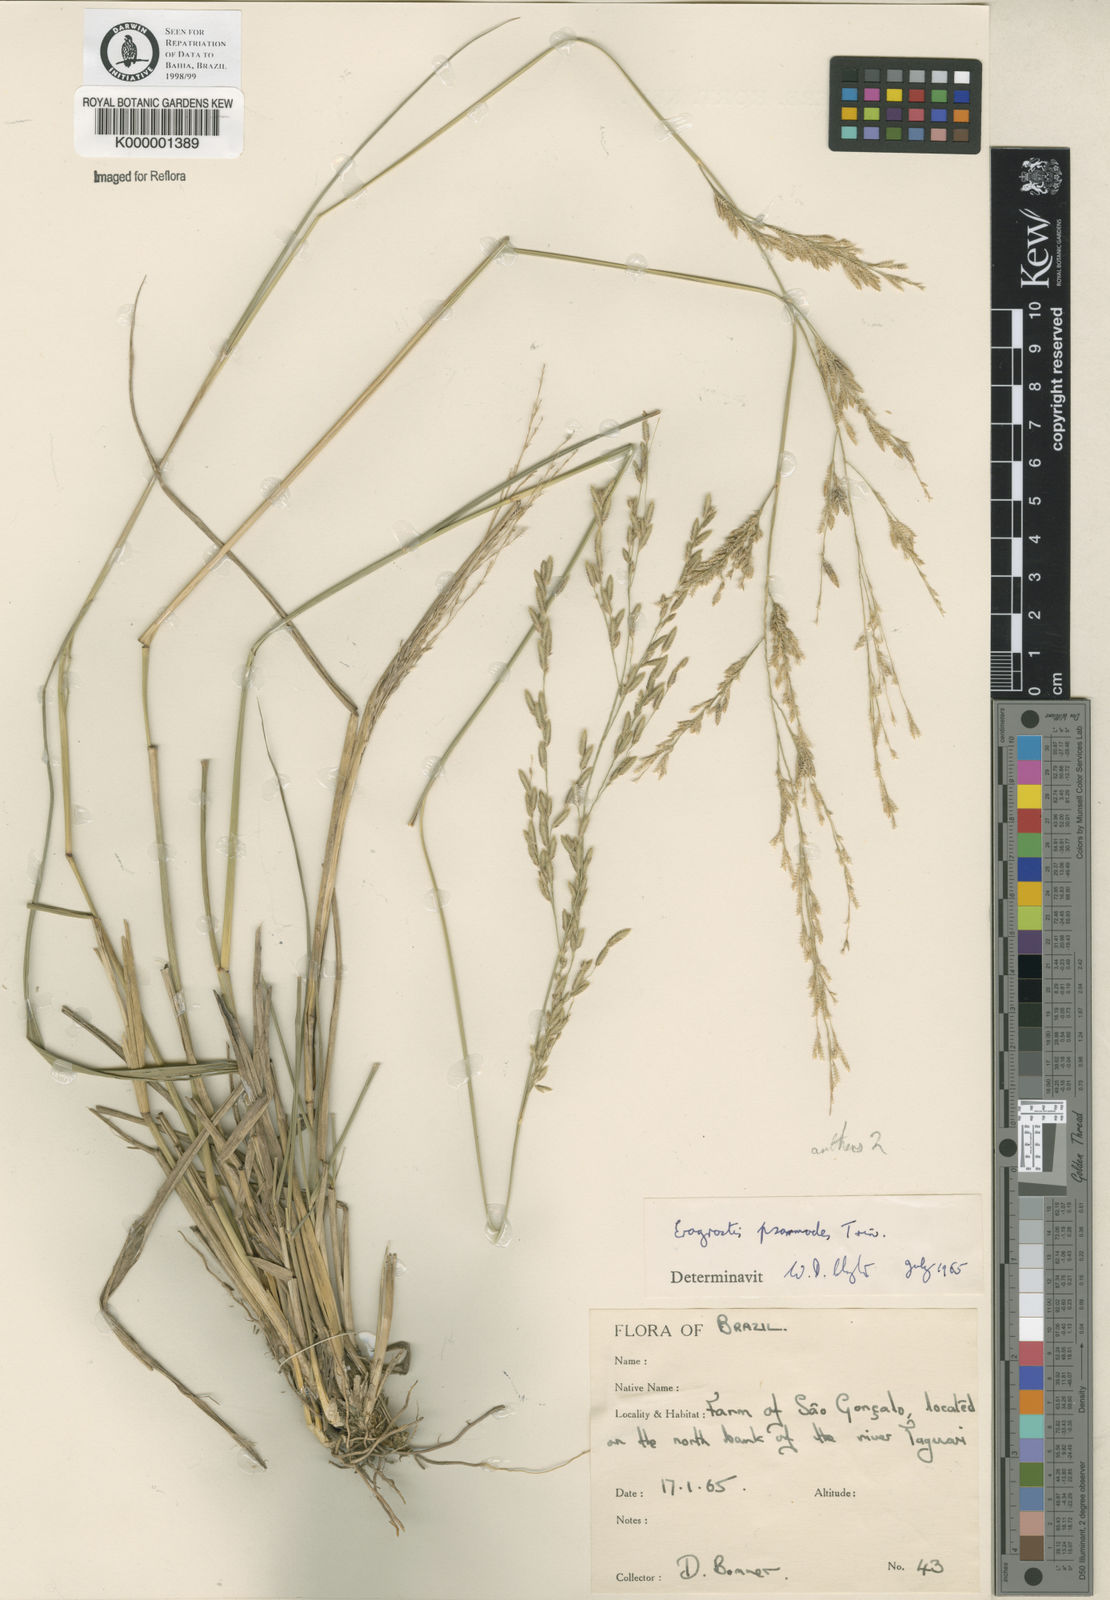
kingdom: Plantae
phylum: Tracheophyta
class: Liliopsida
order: Poales
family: Poaceae
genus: Eragrostis
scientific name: Eragrostis bahiensis
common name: Bahia lovegrass
